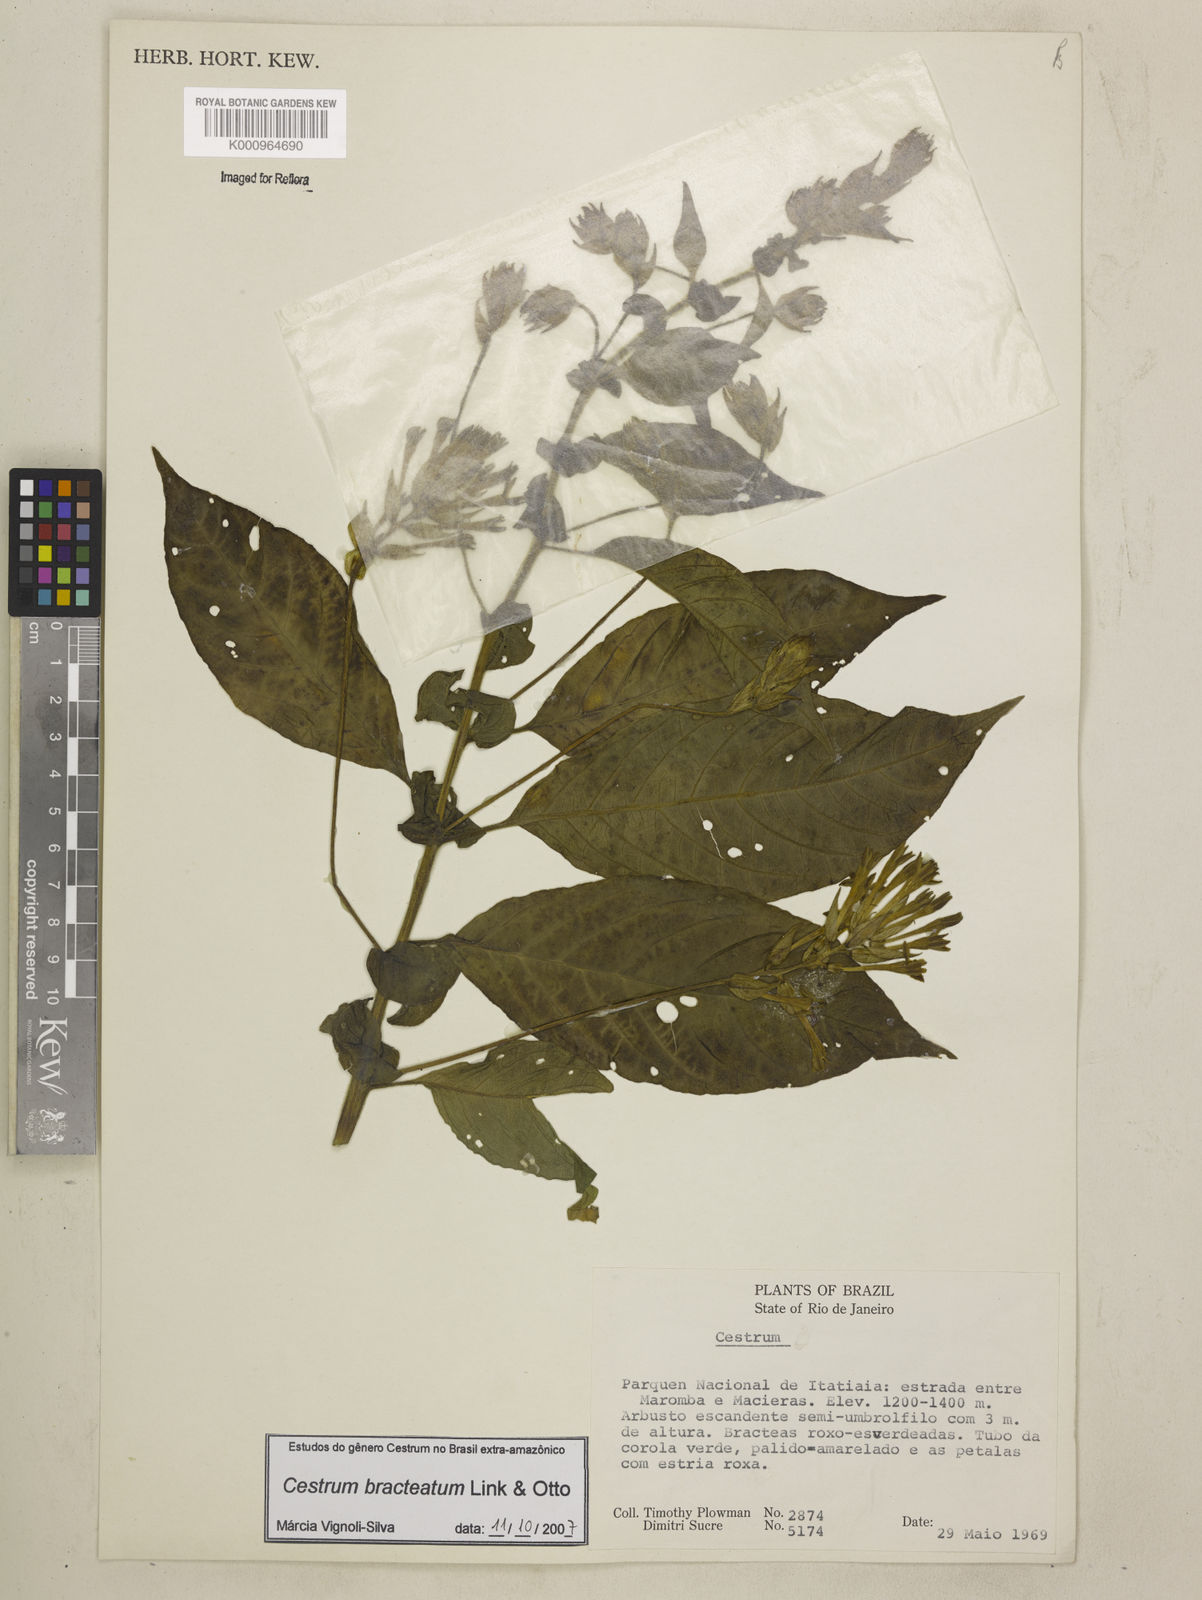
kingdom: Plantae
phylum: Tracheophyta
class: Magnoliopsida
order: Solanales
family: Solanaceae
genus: Cestrum
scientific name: Cestrum bracteatum
